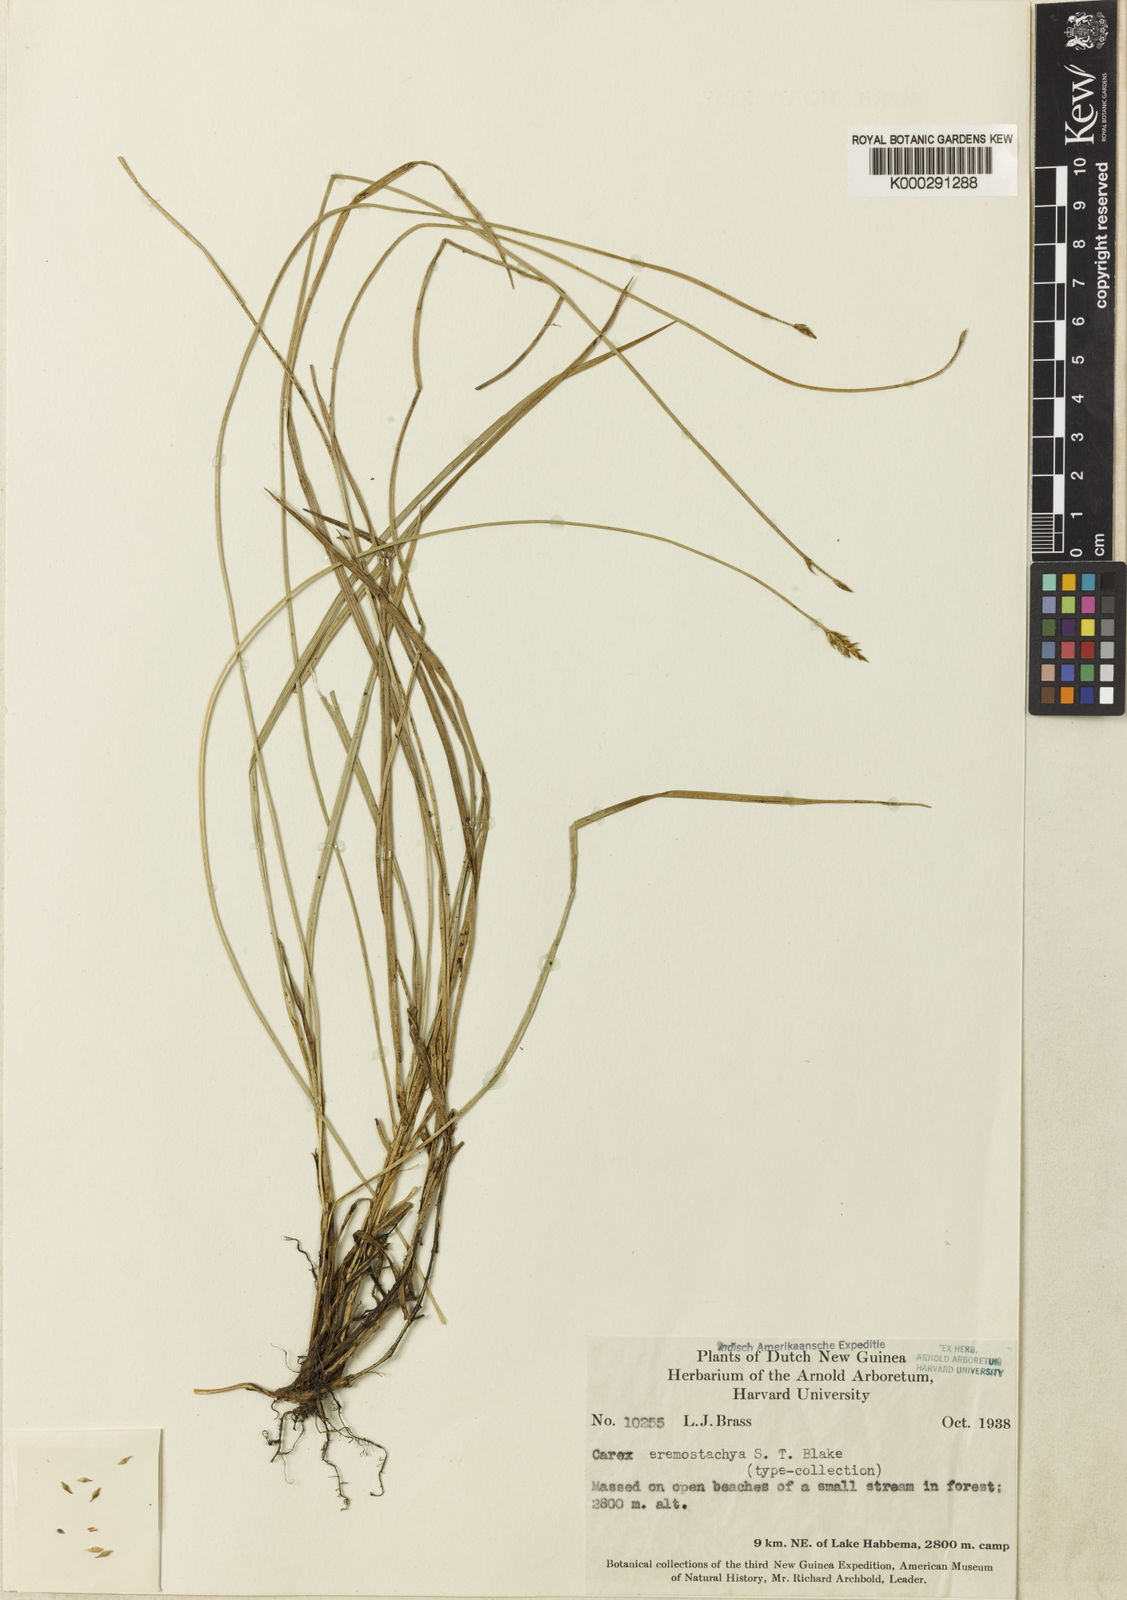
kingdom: Plantae
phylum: Tracheophyta
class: Liliopsida
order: Poales
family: Cyperaceae
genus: Carex
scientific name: Carex eremostachya
